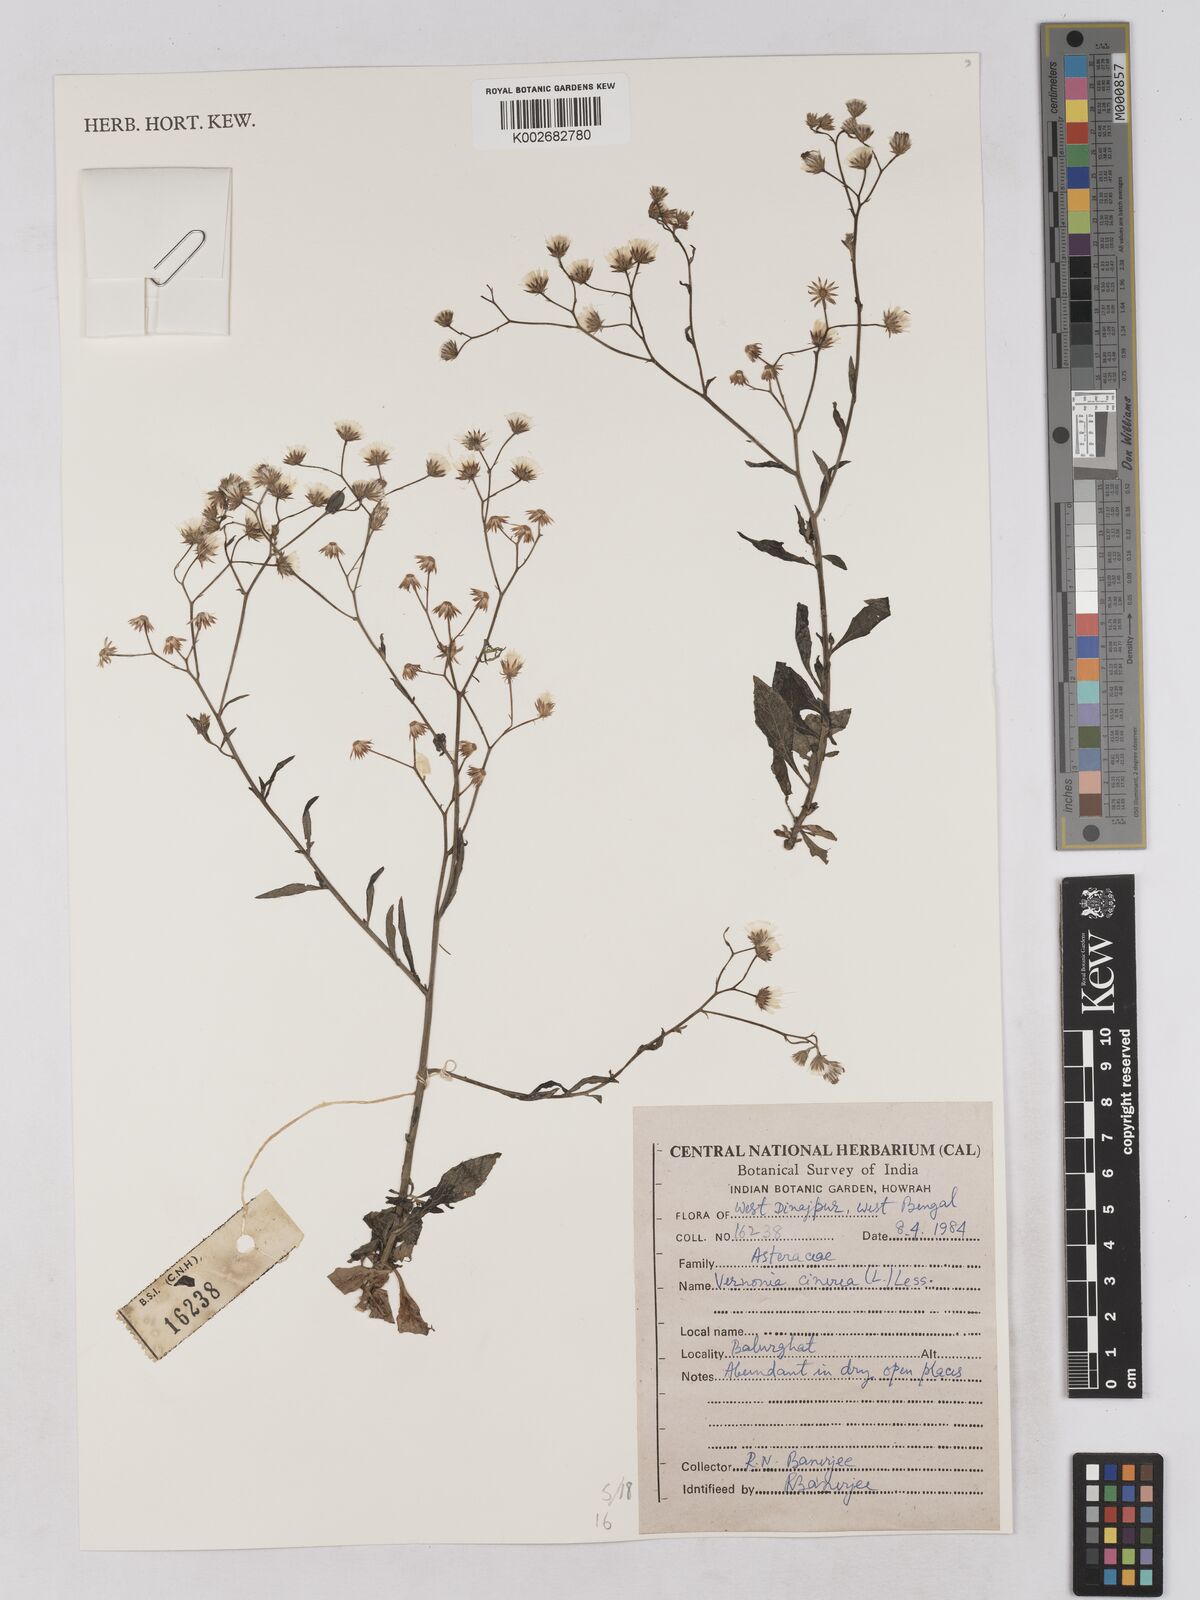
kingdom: Plantae
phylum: Tracheophyta
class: Magnoliopsida
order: Asterales
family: Asteraceae
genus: Cyanthillium
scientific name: Cyanthillium cinereum
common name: Little ironweed
